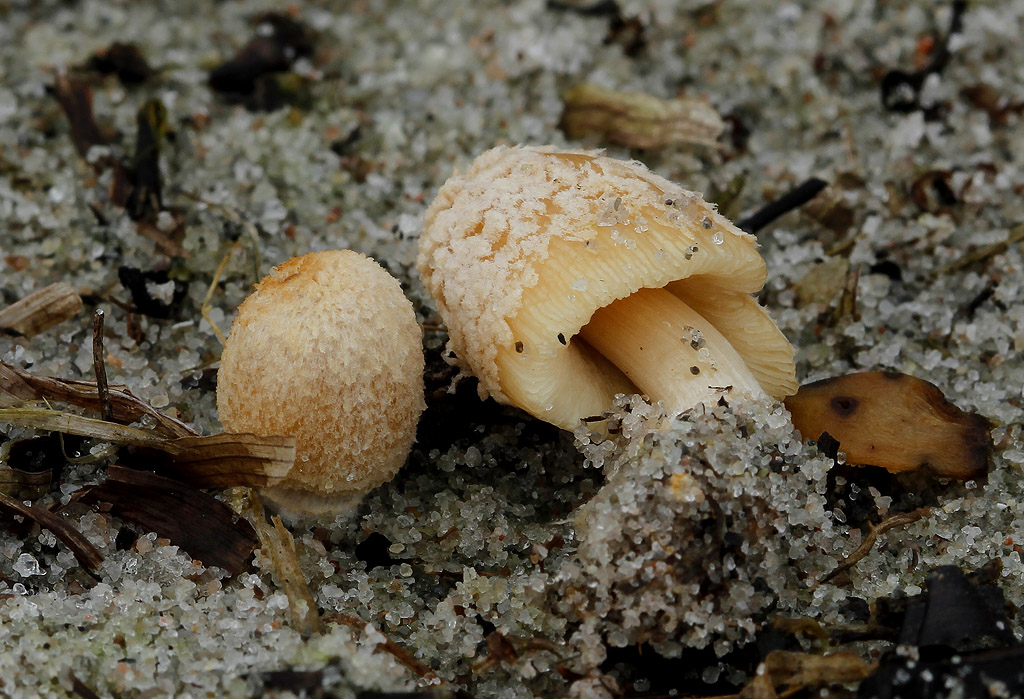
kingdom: Fungi
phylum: Basidiomycota
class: Agaricomycetes
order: Agaricales
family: Psathyrellaceae
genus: Coprinellus
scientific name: Coprinellus flocculosus
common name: fnugget blækhat
